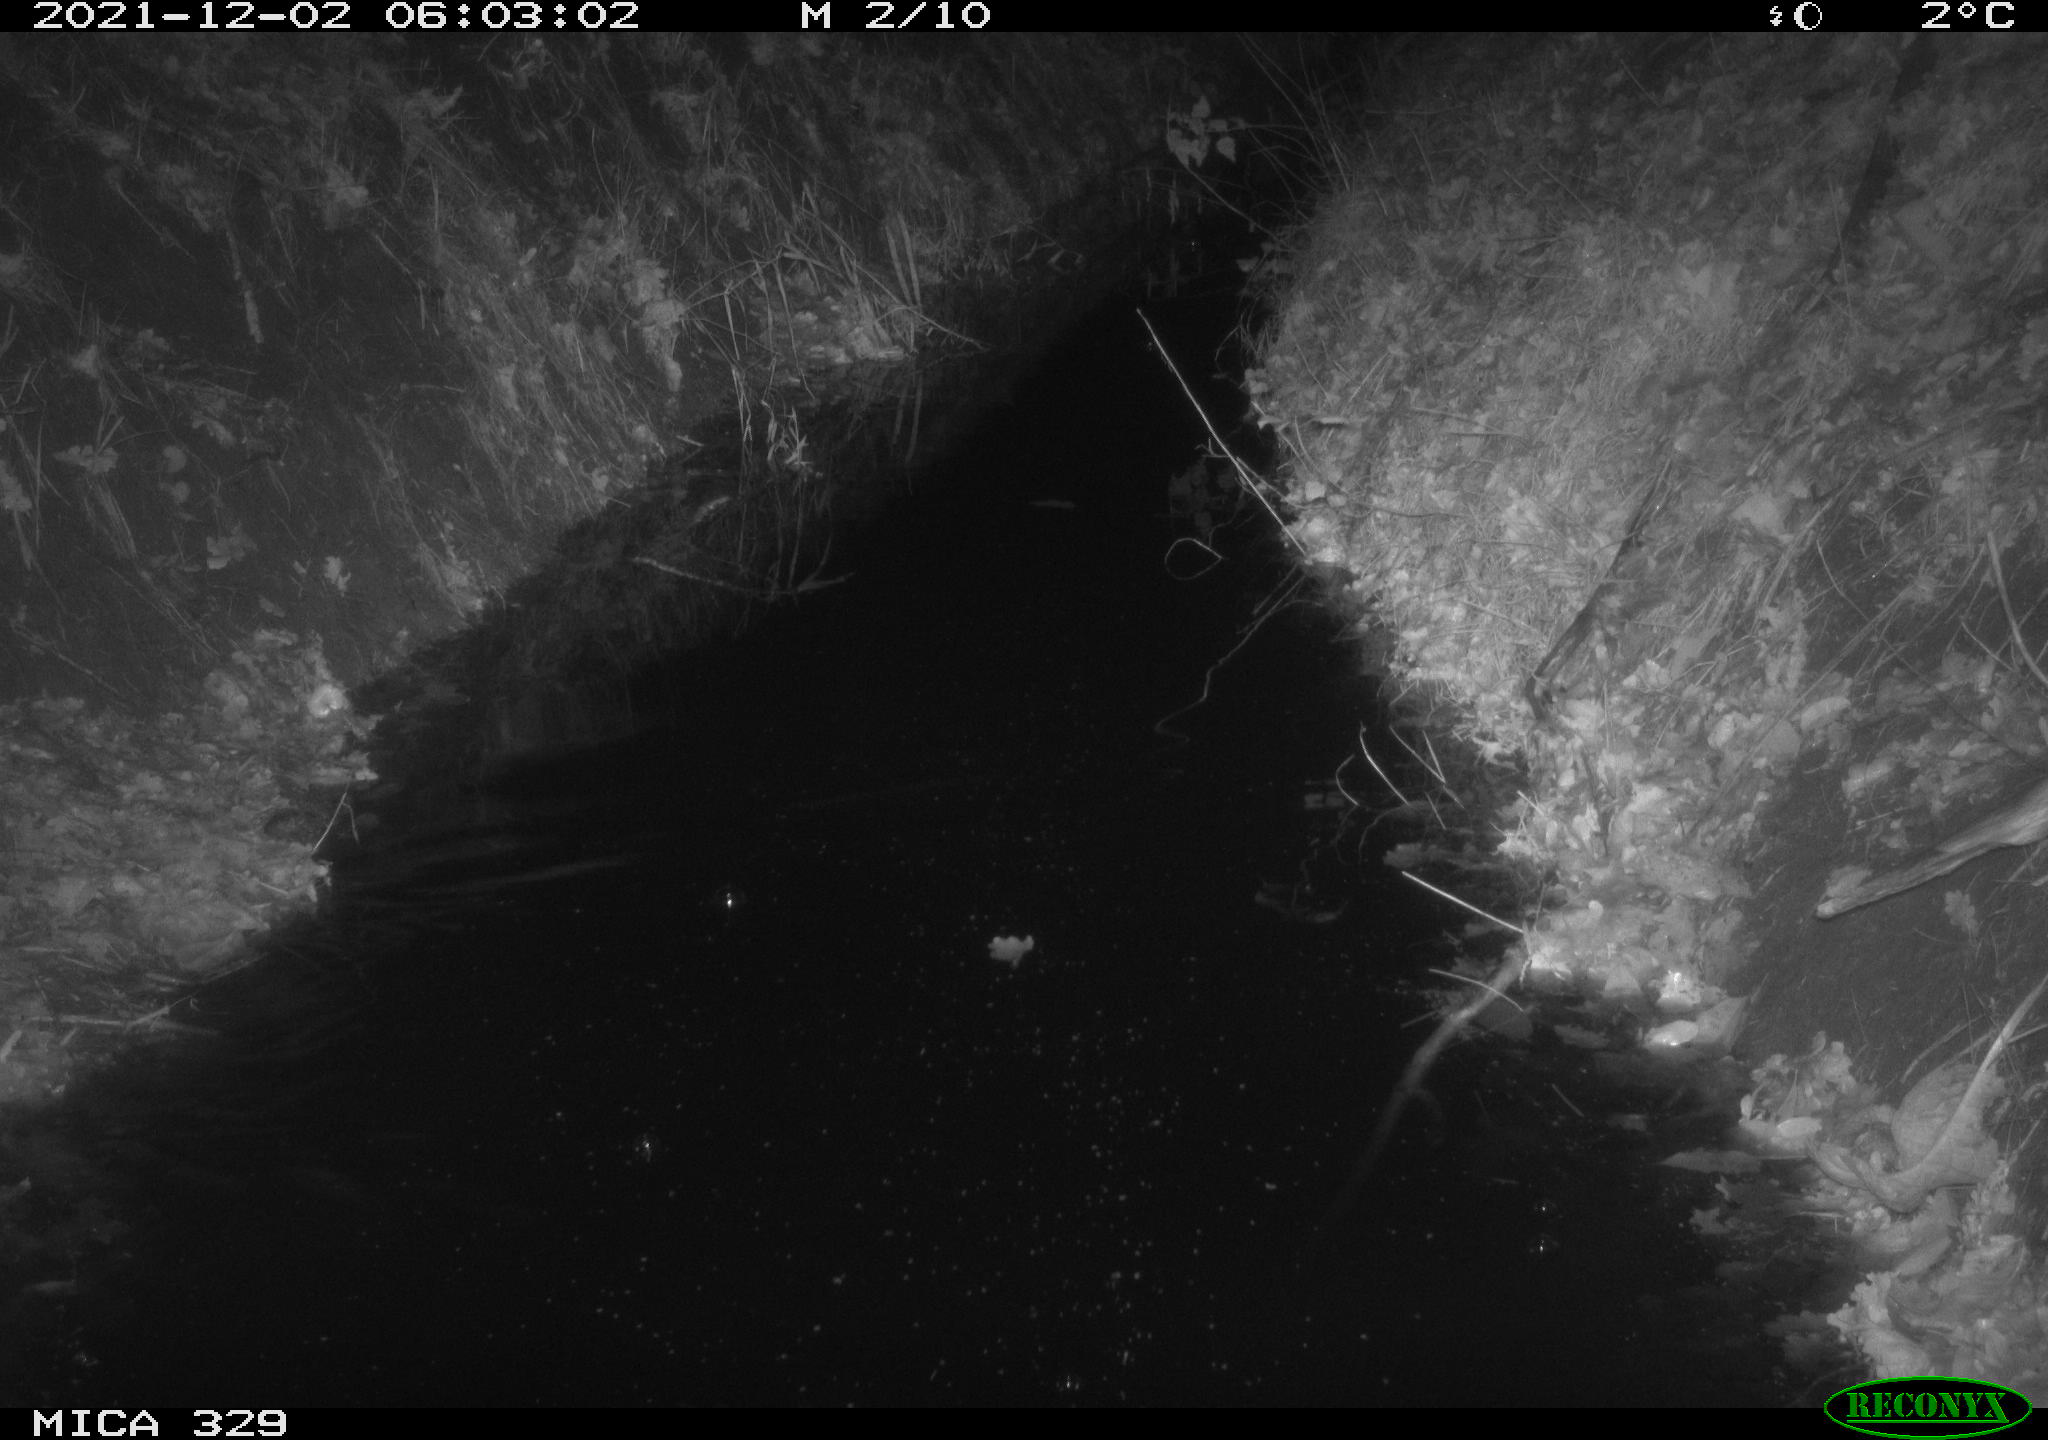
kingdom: Animalia
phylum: Chordata
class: Mammalia
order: Rodentia
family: Muridae
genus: Rattus
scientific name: Rattus norvegicus
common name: Brown rat
